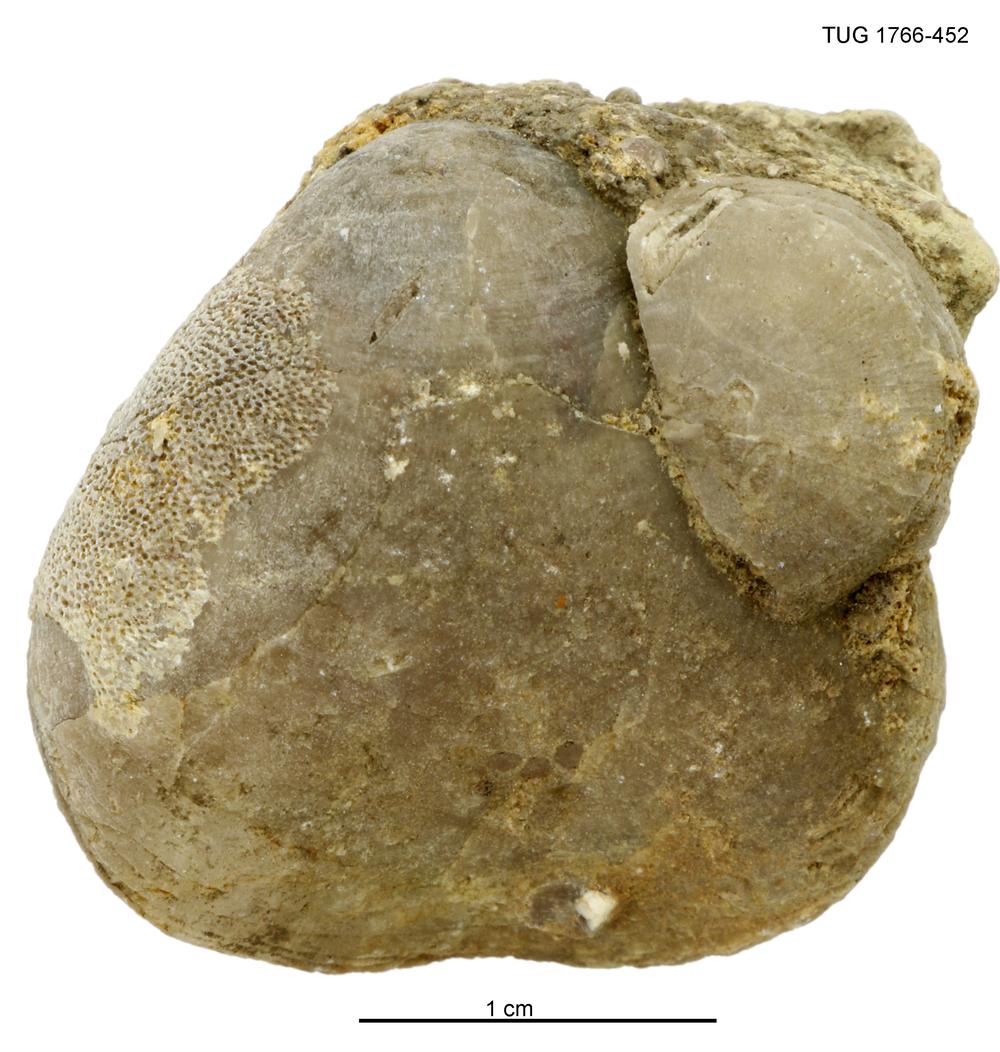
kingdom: Animalia
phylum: Brachiopoda
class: Rhynchonellata
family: Porambonitidae
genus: Porambonites
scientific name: Porambonites
